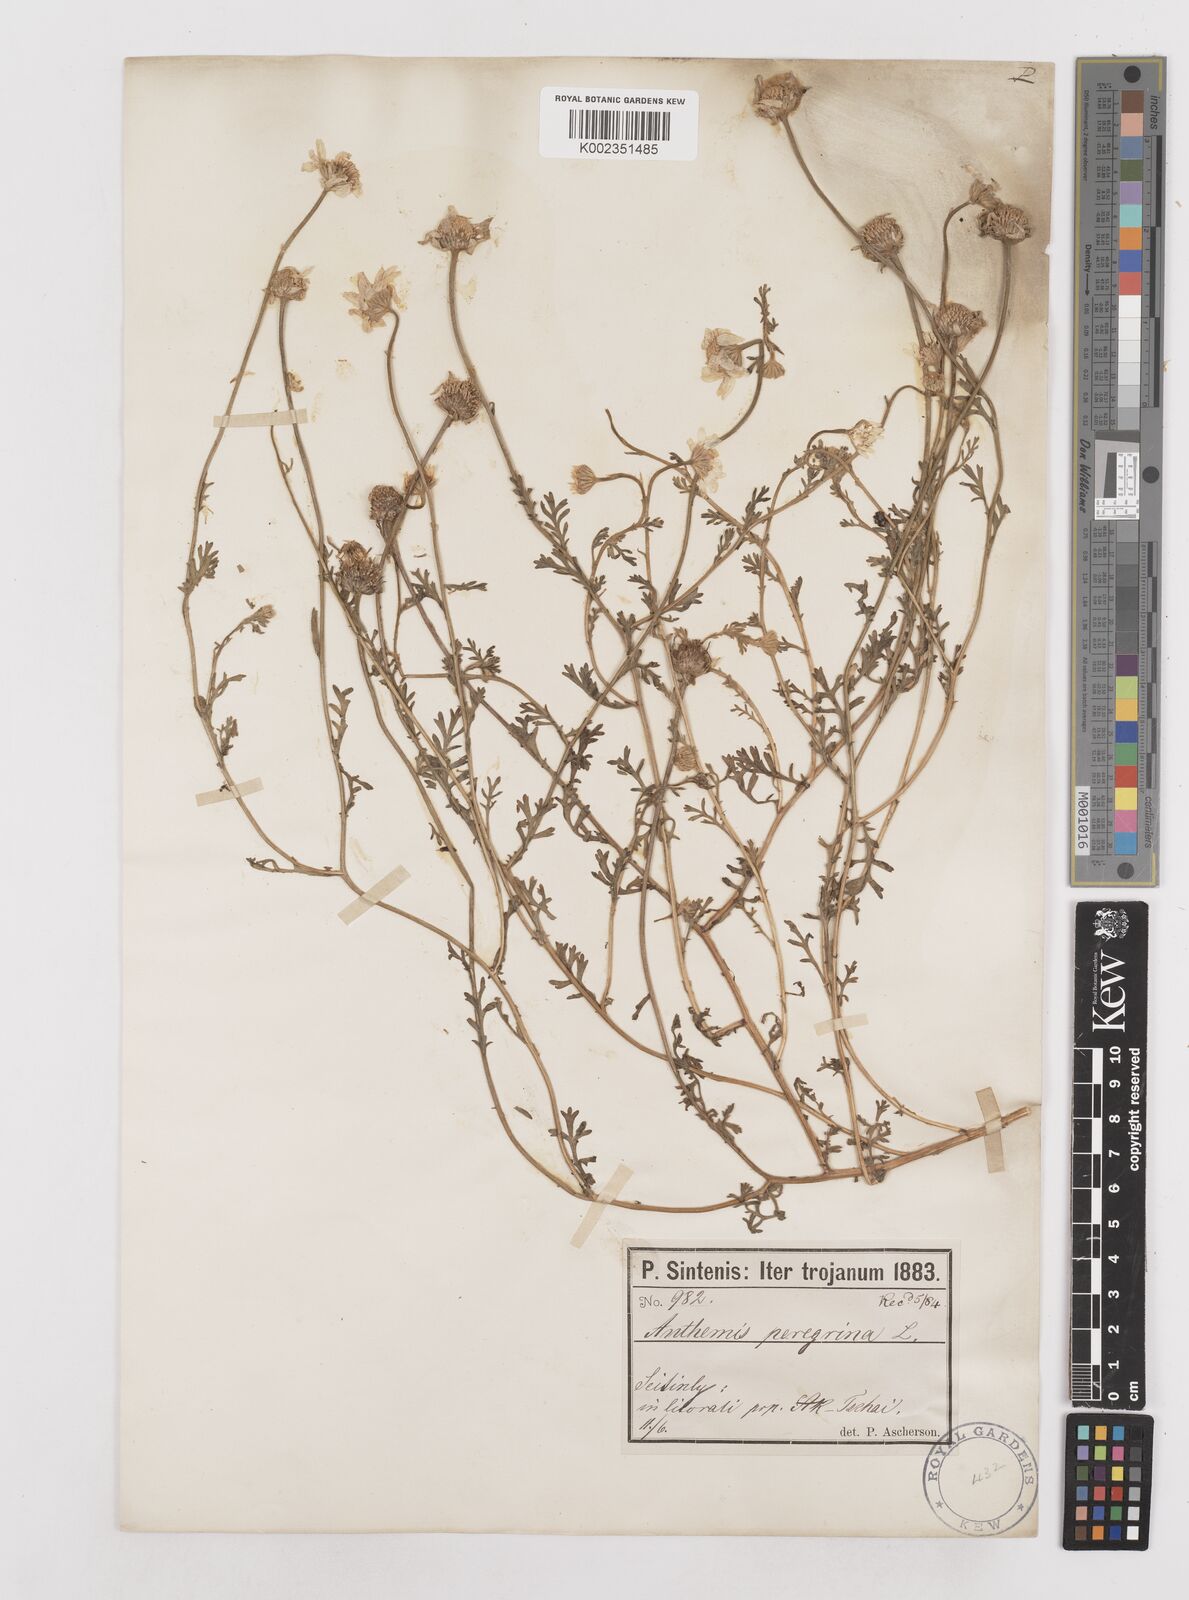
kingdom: Plantae
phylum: Tracheophyta
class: Magnoliopsida
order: Asterales
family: Asteraceae
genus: Anthemis
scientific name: Anthemis auriculata
